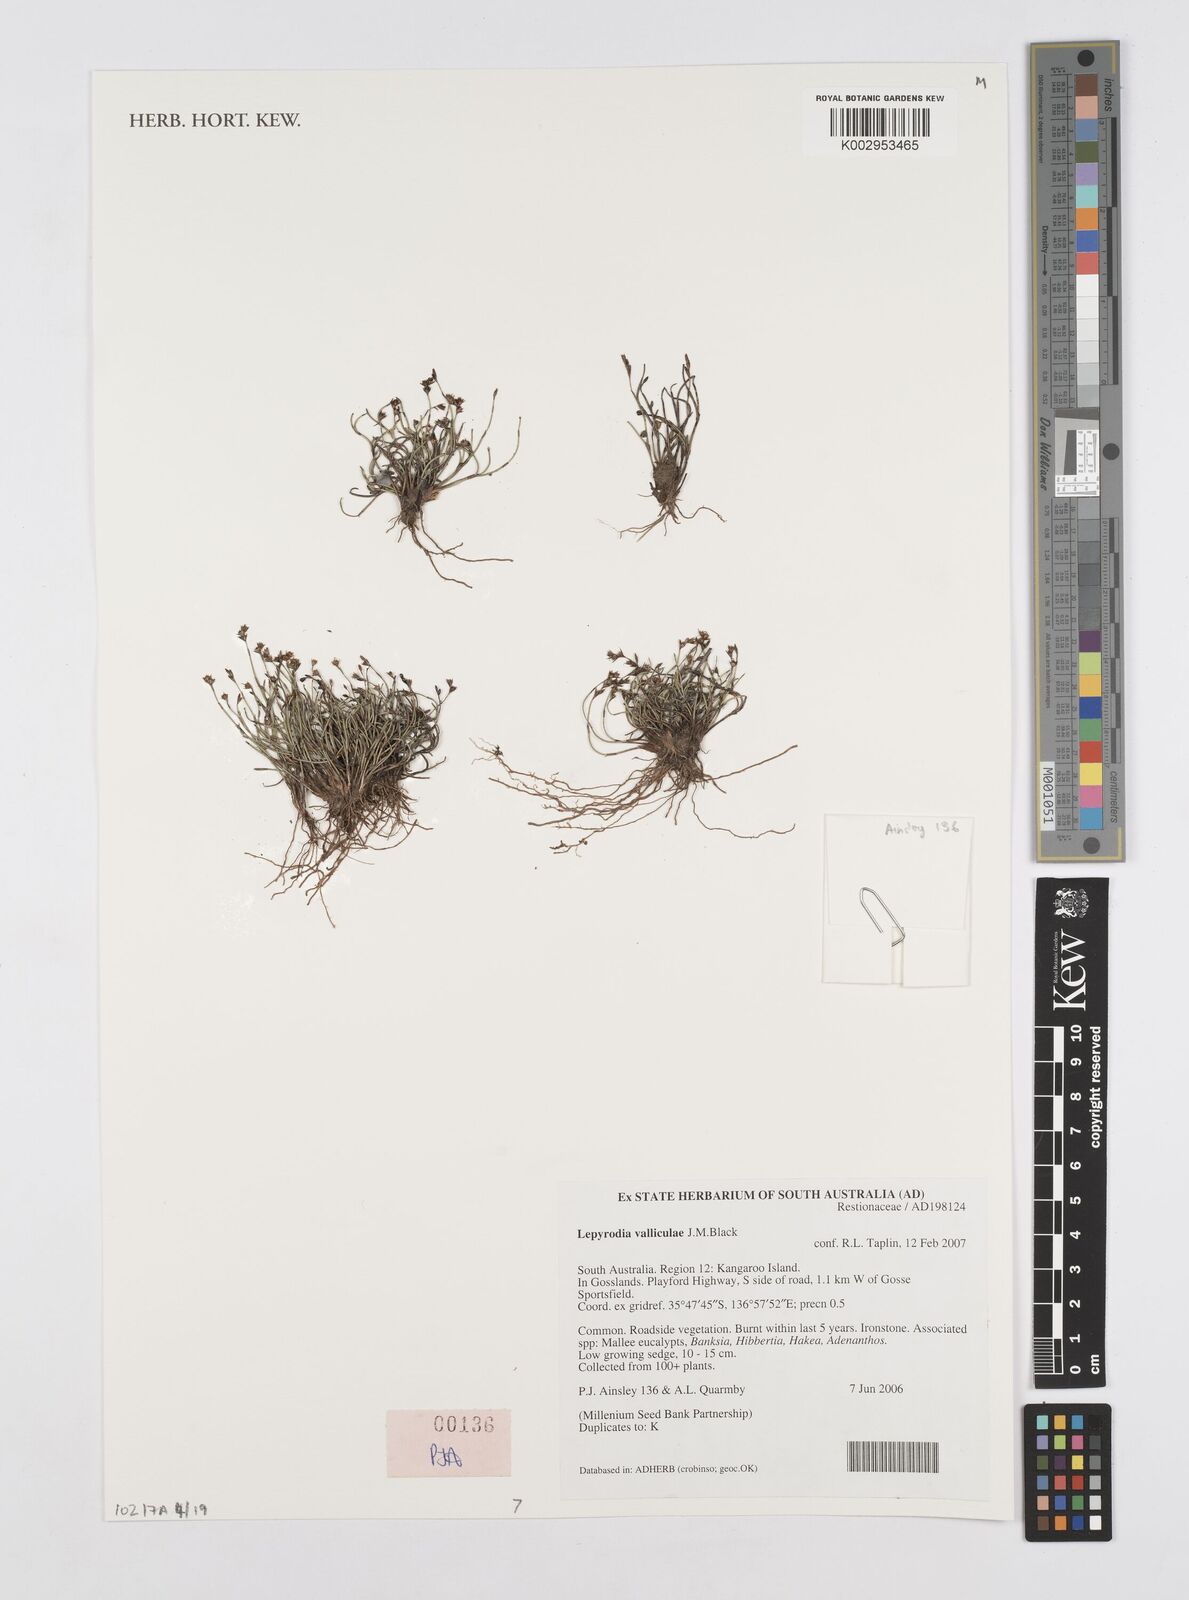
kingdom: Plantae
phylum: Tracheophyta
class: Liliopsida
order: Poales
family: Restionaceae
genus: Lepyrodia
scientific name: Lepyrodia valliculae
